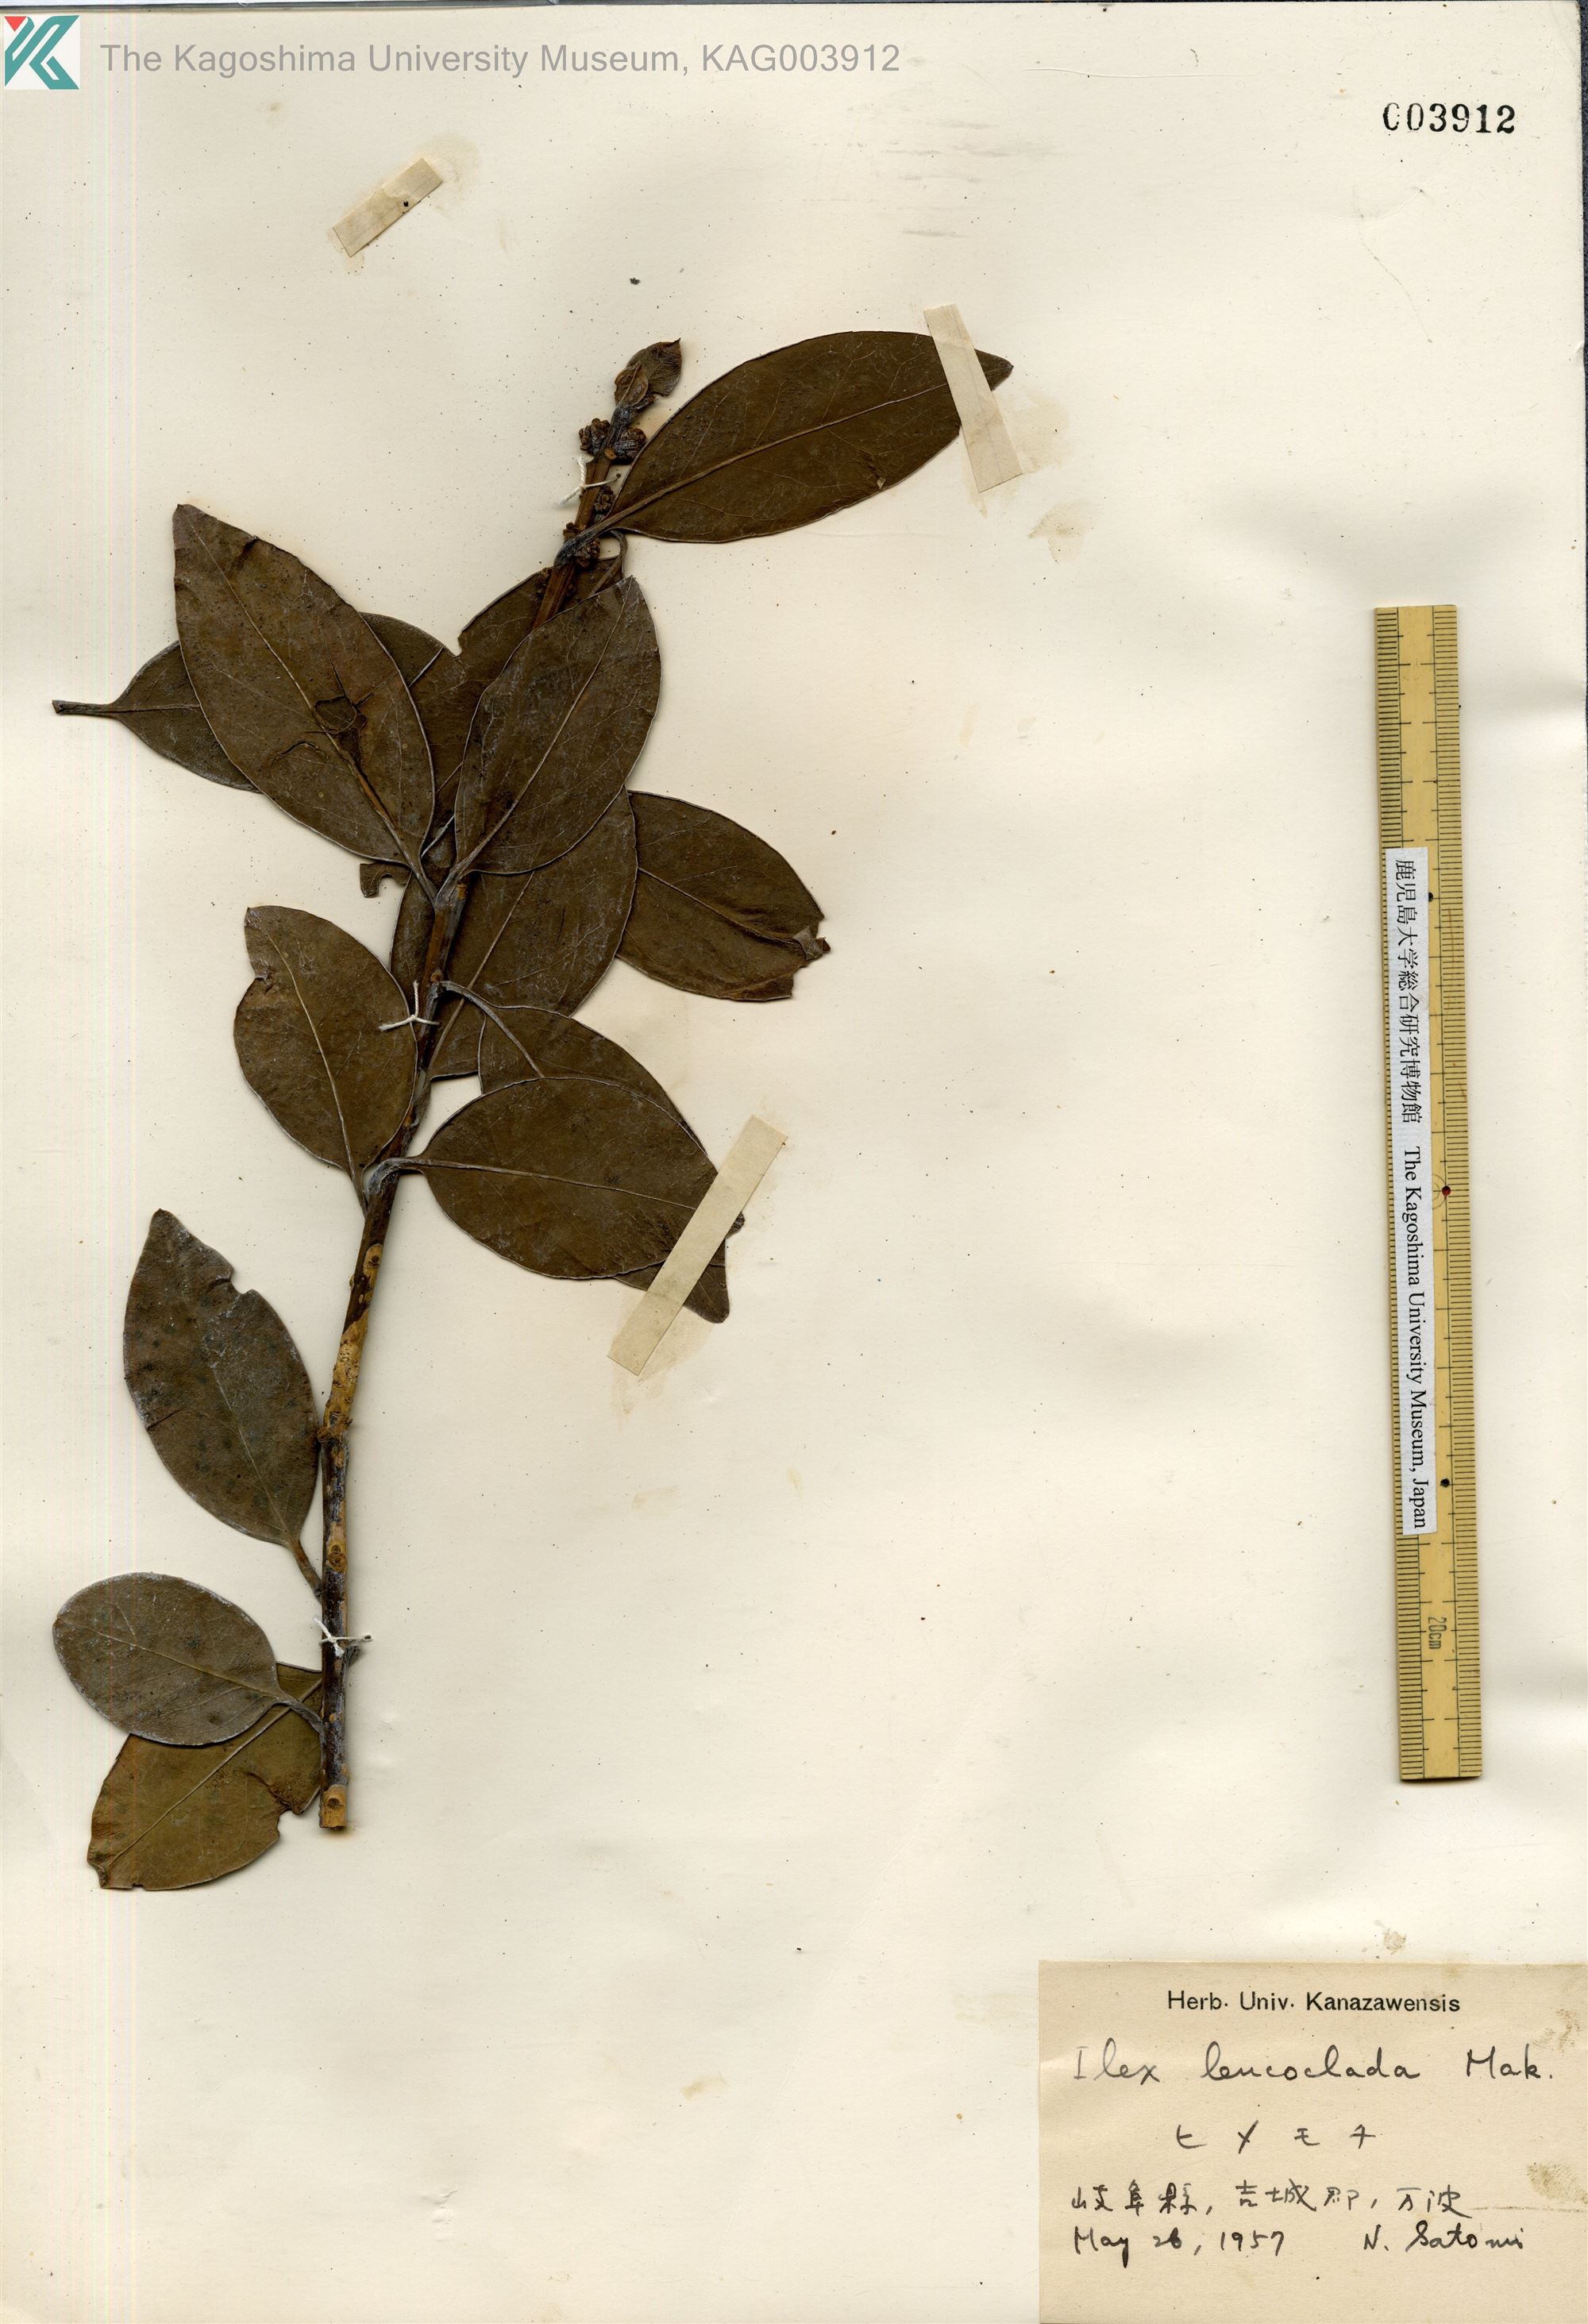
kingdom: Plantae
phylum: Tracheophyta
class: Magnoliopsida
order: Aquifoliales
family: Aquifoliaceae
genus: Ilex
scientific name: Ilex leucoclada
